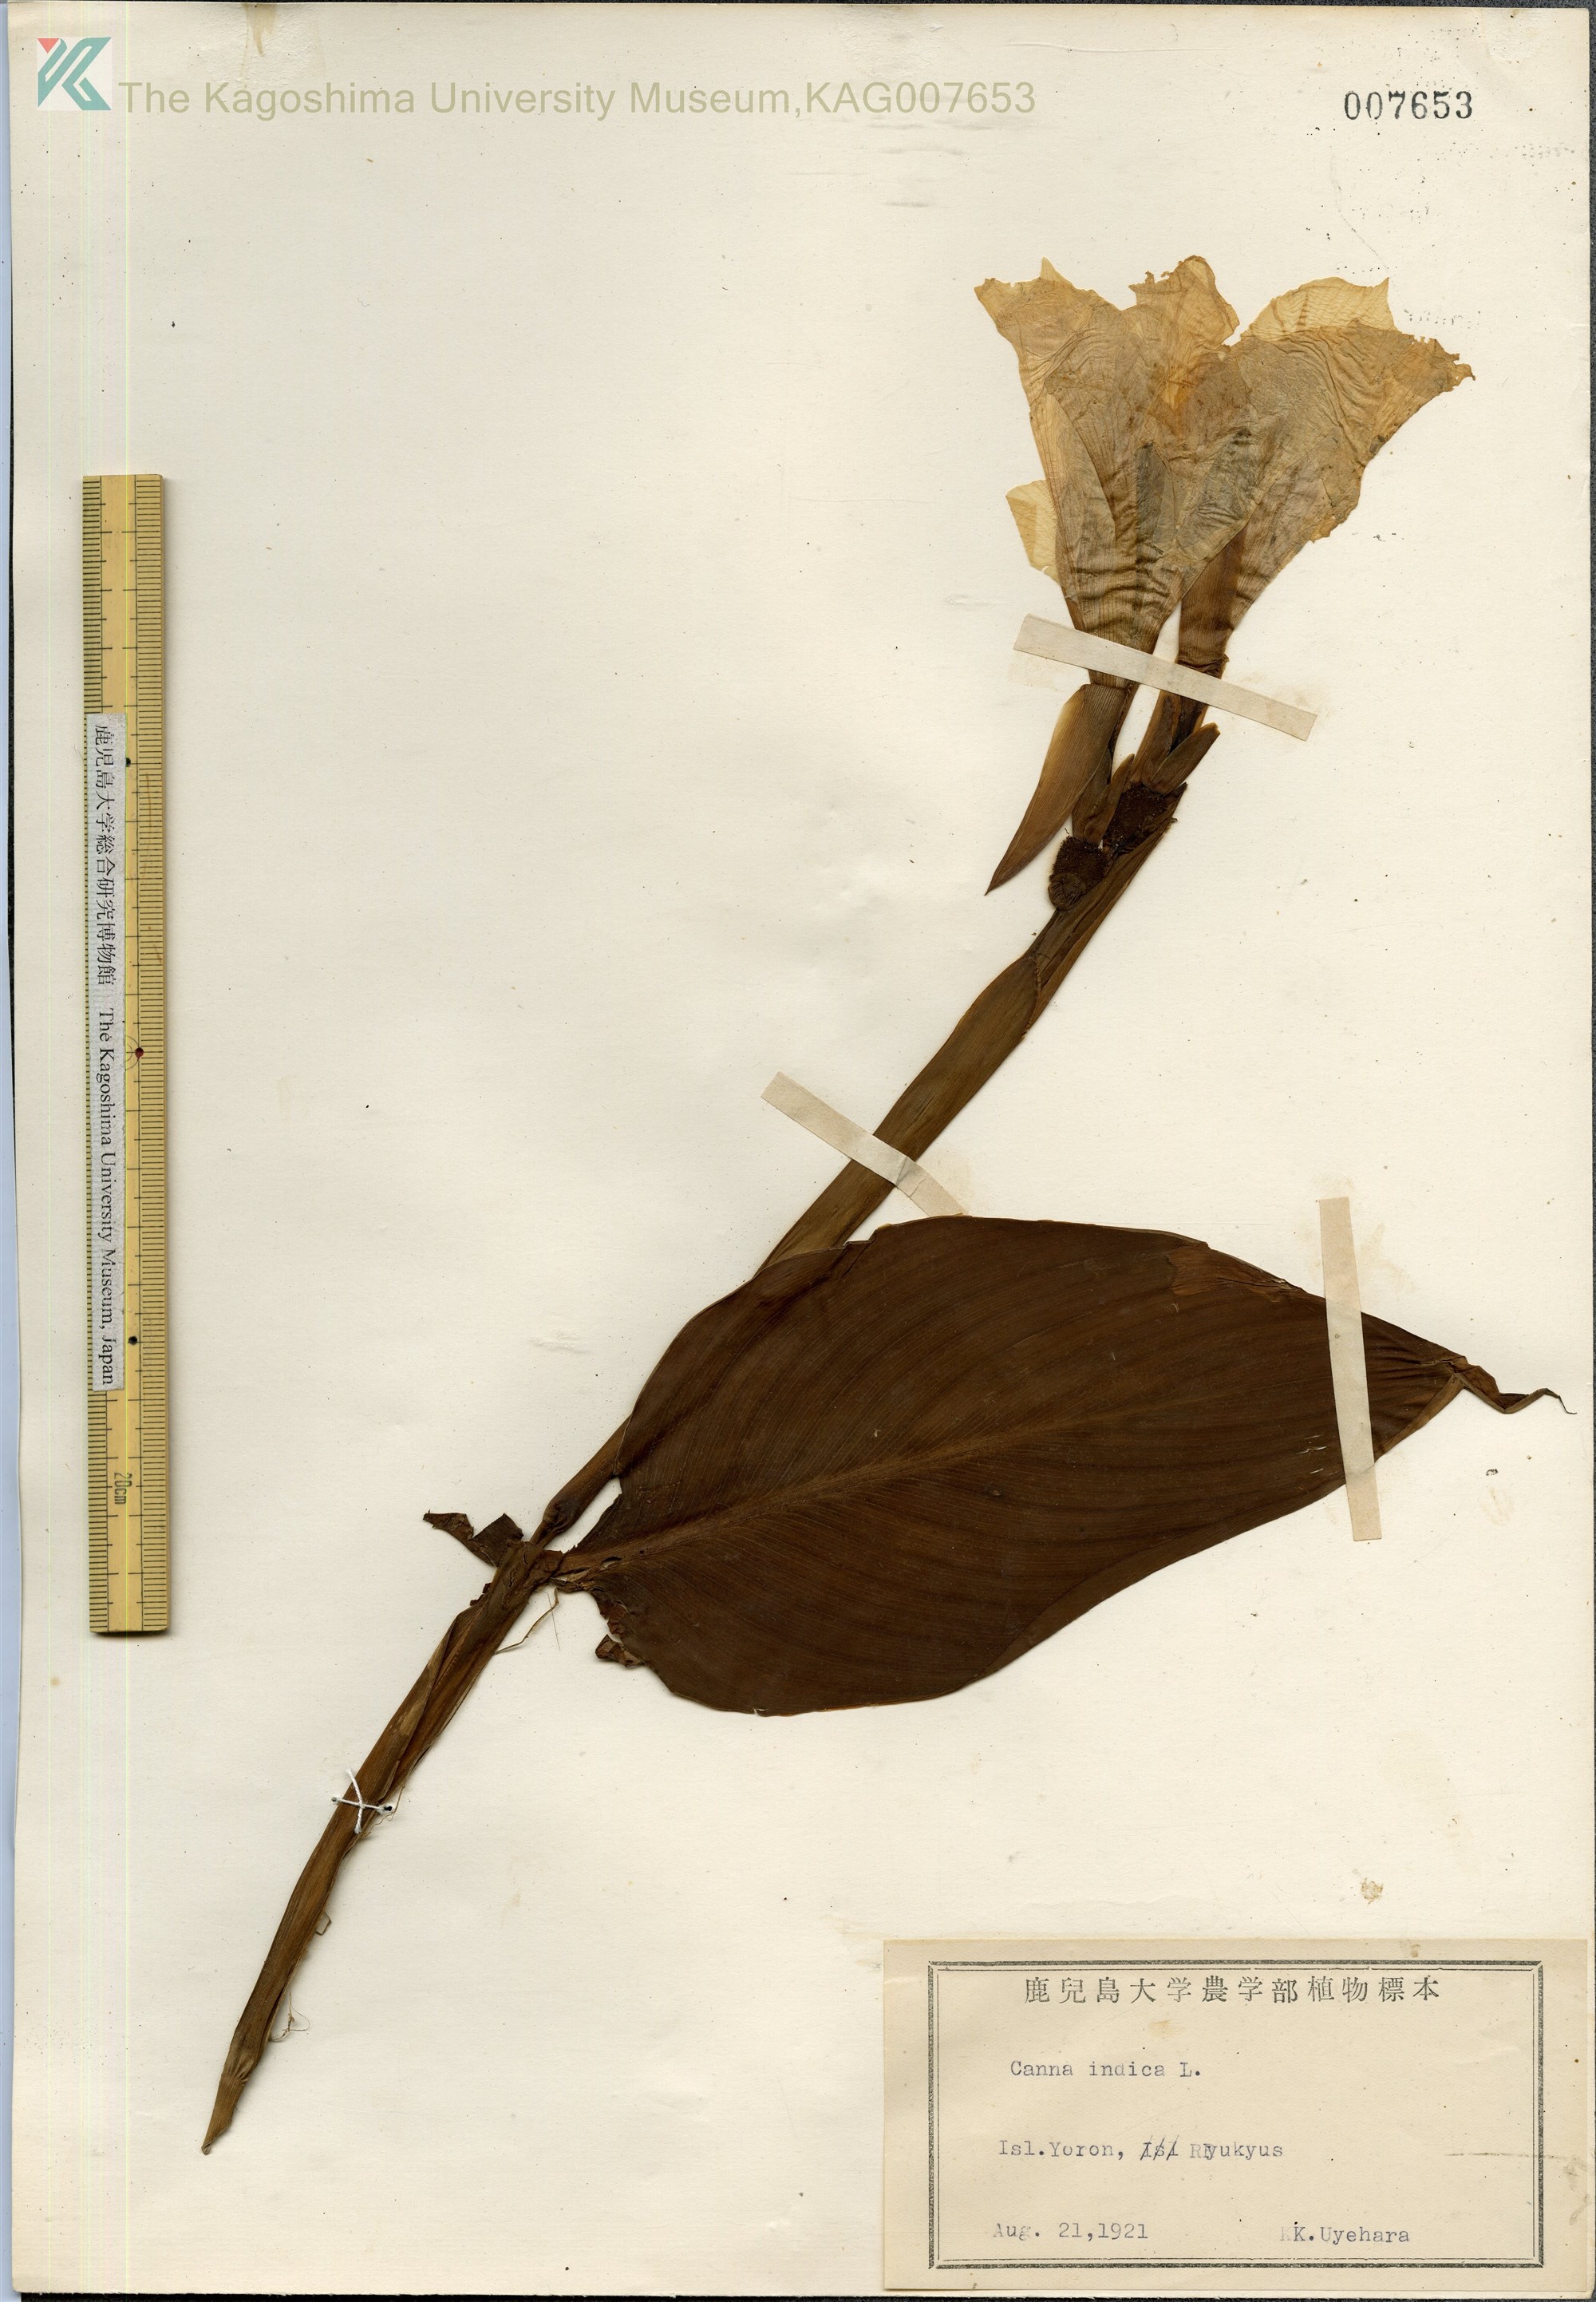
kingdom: Plantae
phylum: Tracheophyta
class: Liliopsida
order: Zingiberales
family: Cannaceae
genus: Canna
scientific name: Canna indica
